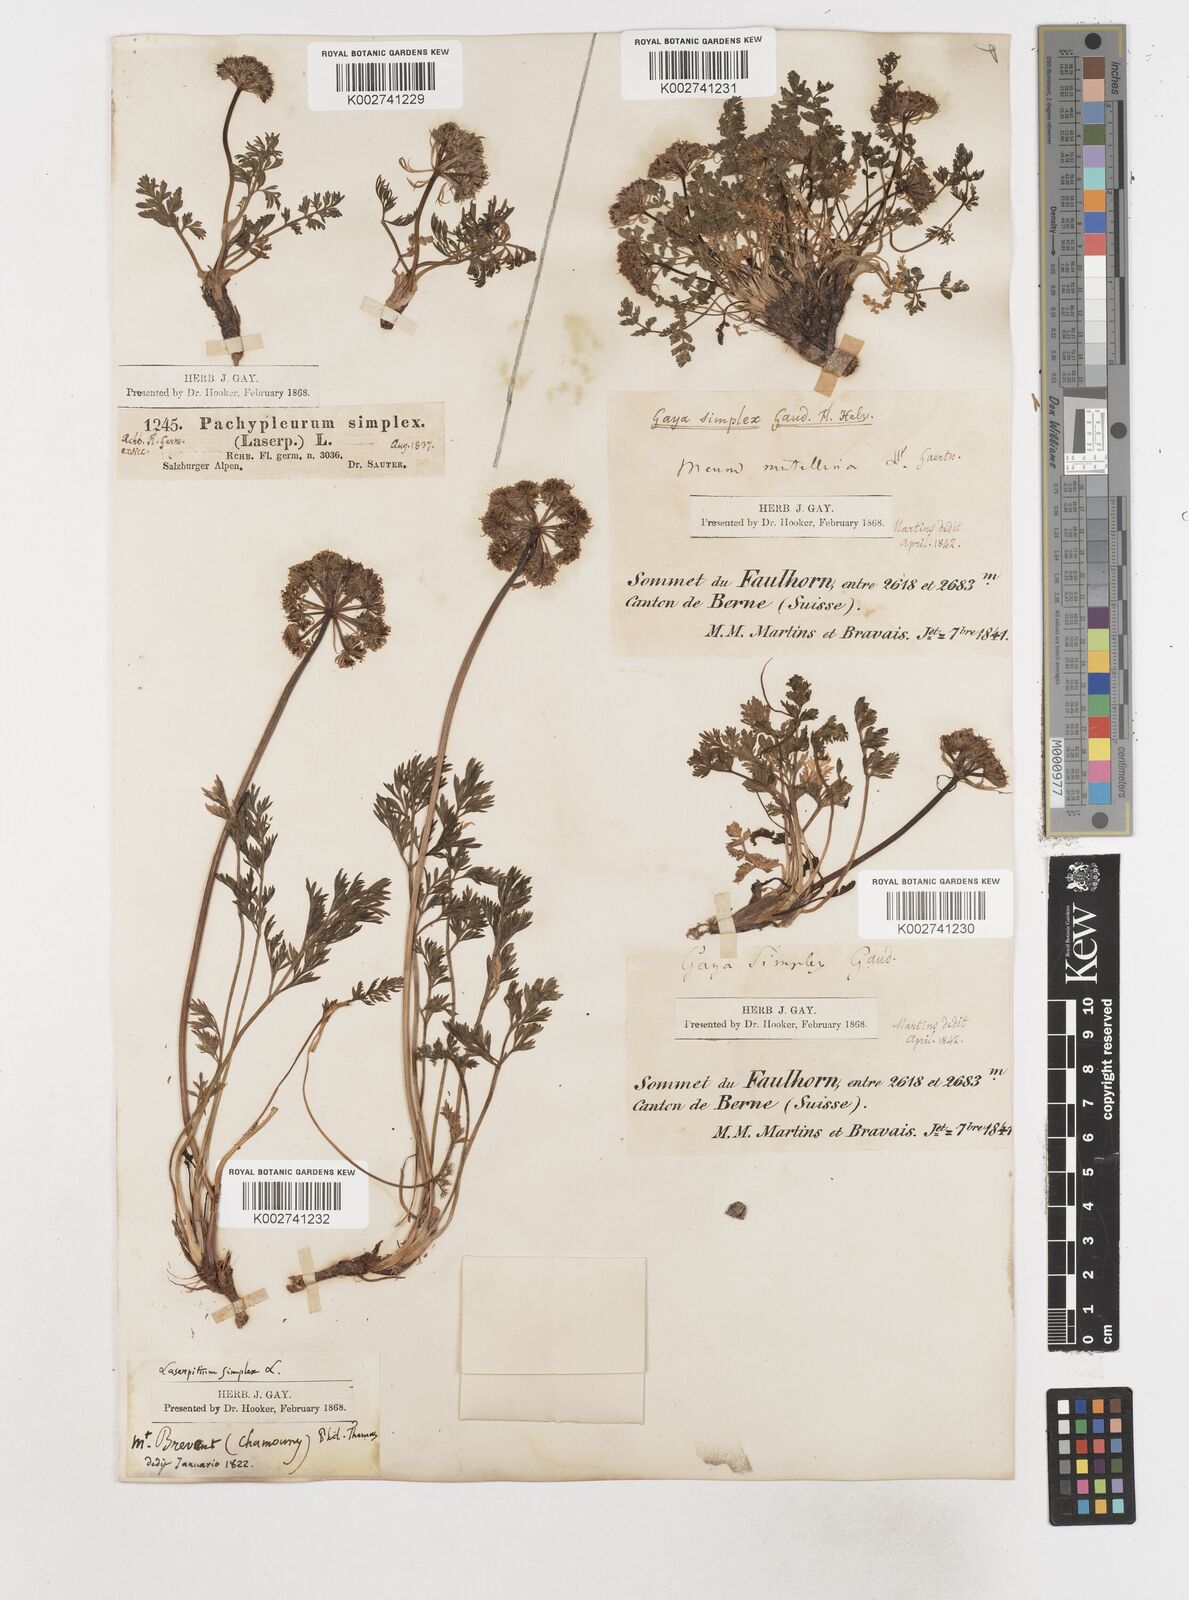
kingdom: Plantae
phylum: Tracheophyta
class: Magnoliopsida
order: Apiales
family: Apiaceae
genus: Pachypleurum
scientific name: Pachypleurum mutellinoides
